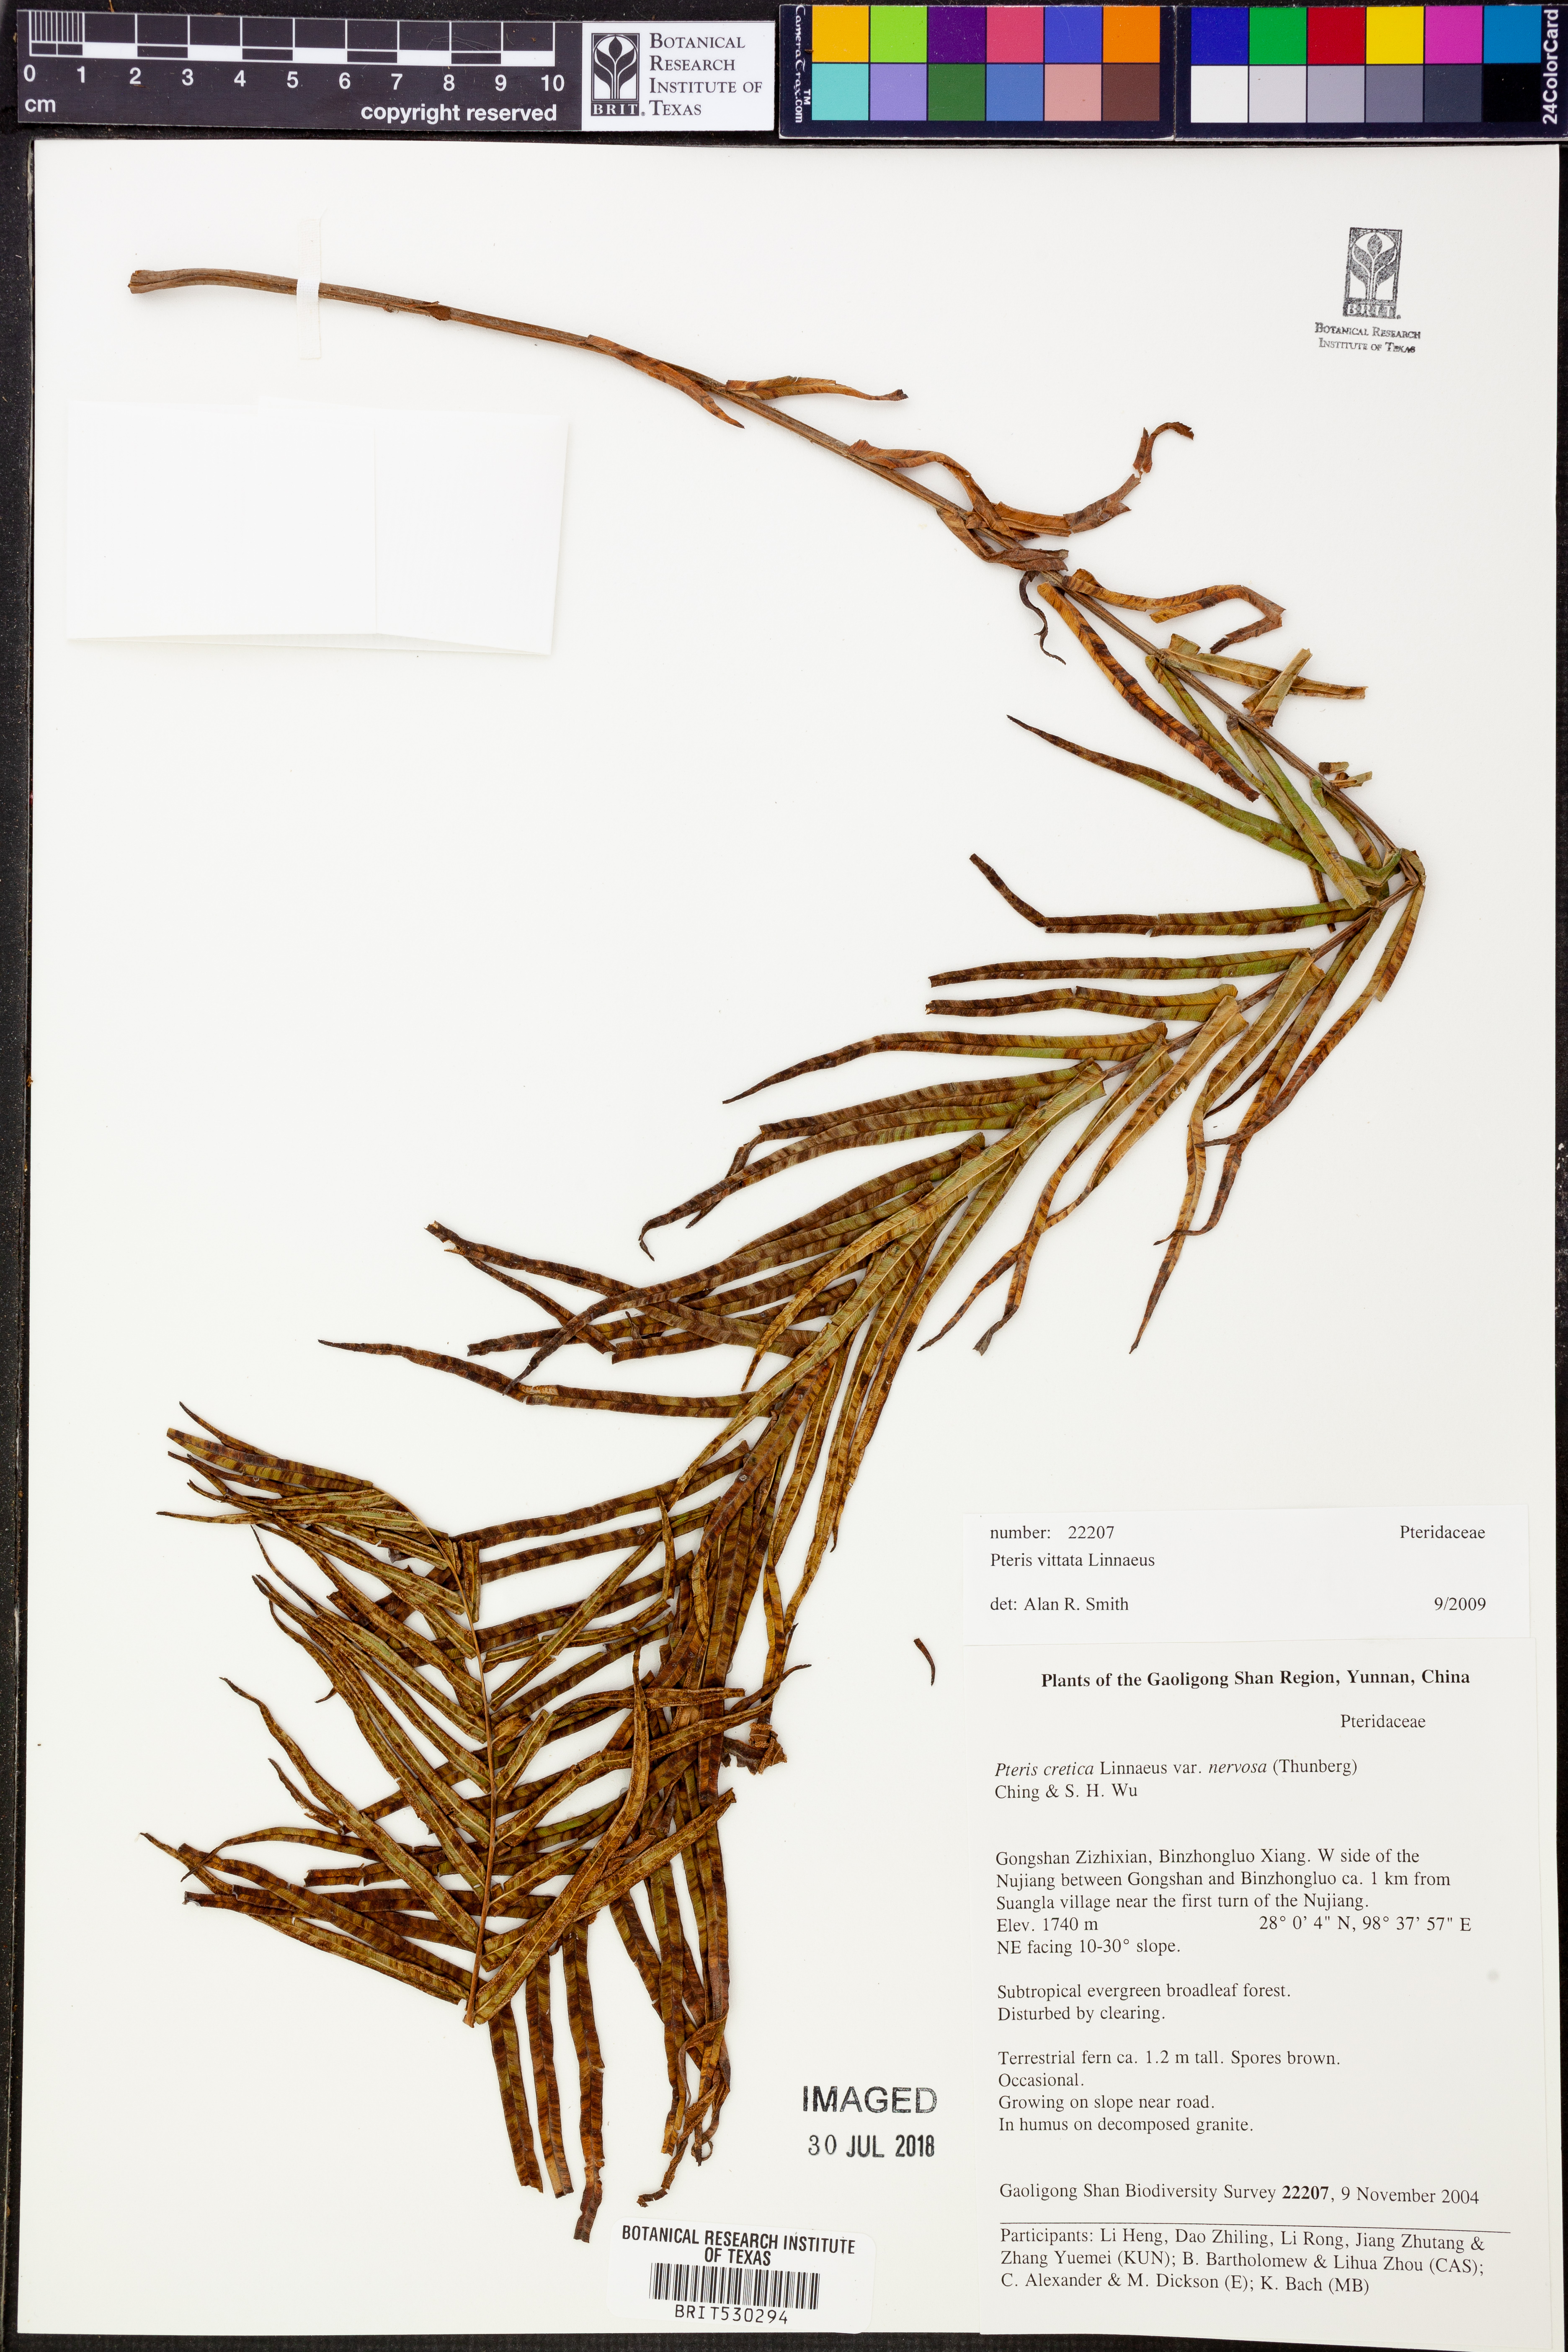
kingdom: Plantae
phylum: Tracheophyta
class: Polypodiopsida
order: Polypodiales
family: Pteridaceae
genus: Pteris
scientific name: Pteris vittata
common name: Ladder brake
